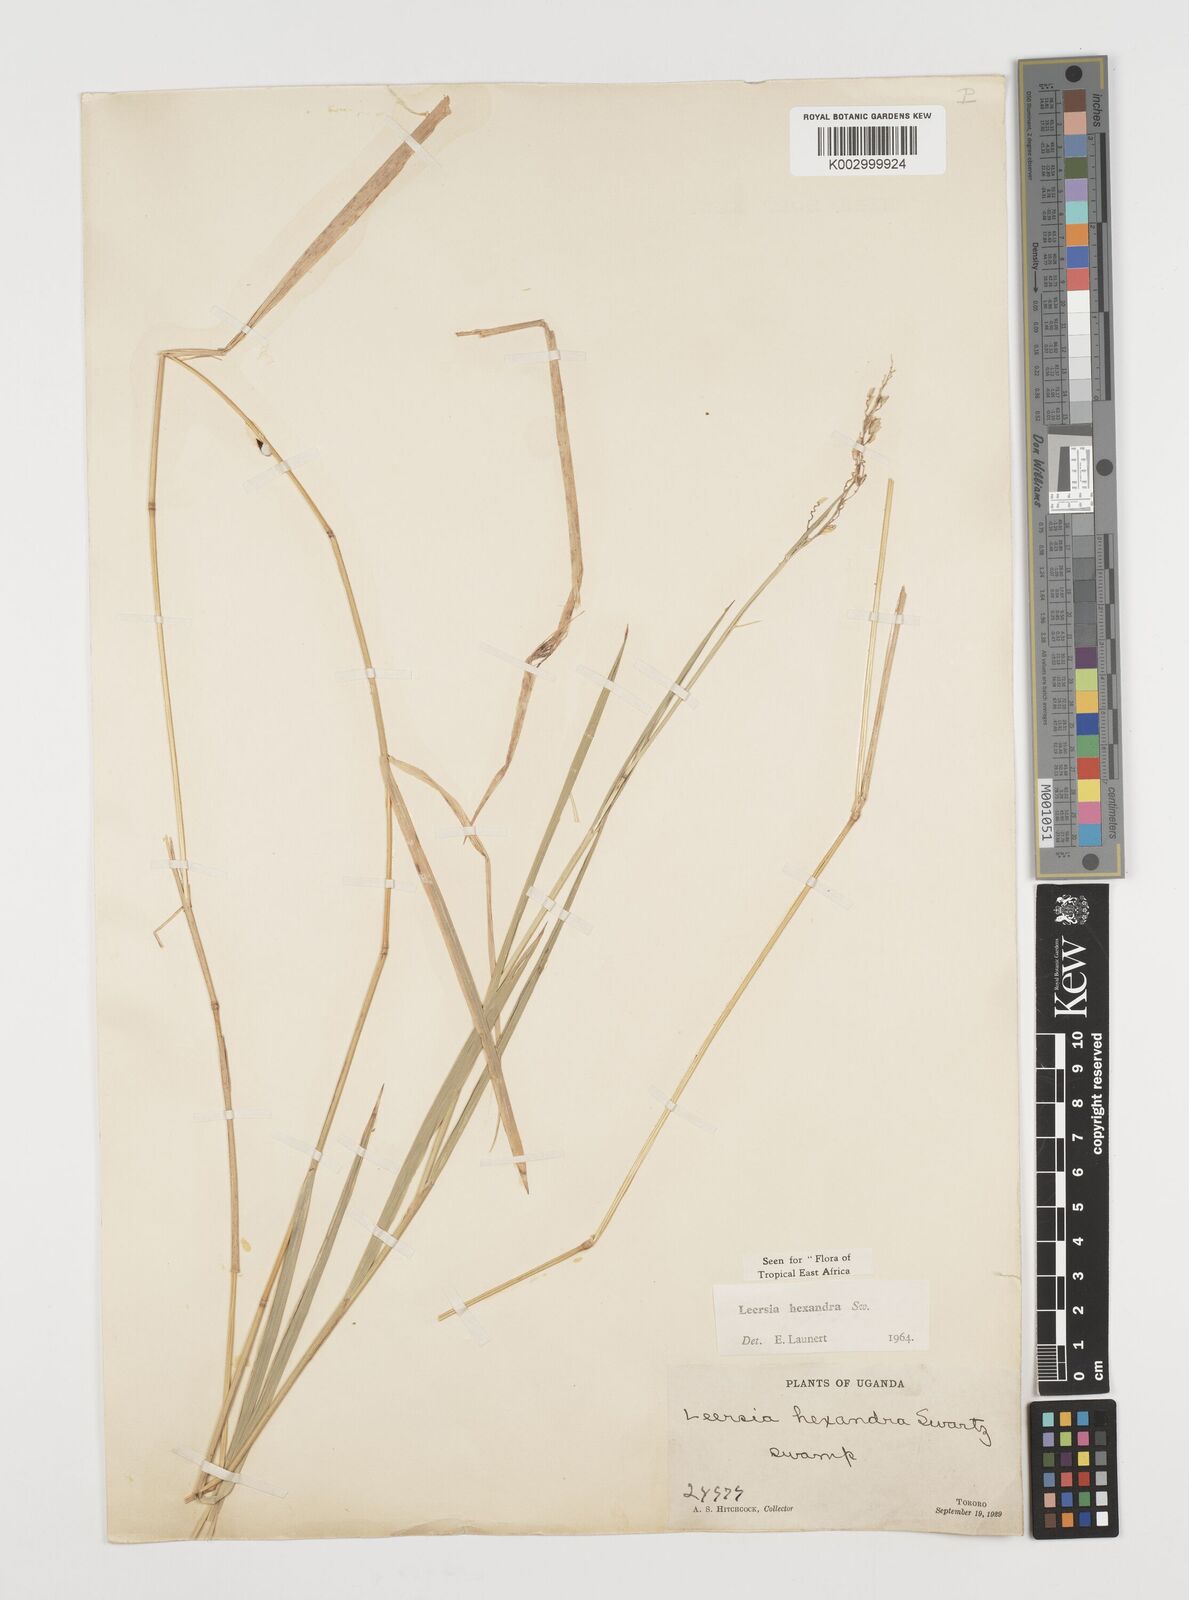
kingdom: Plantae
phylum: Tracheophyta
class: Liliopsida
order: Poales
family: Poaceae
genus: Leersia
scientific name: Leersia hexandra
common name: Southern cut grass
